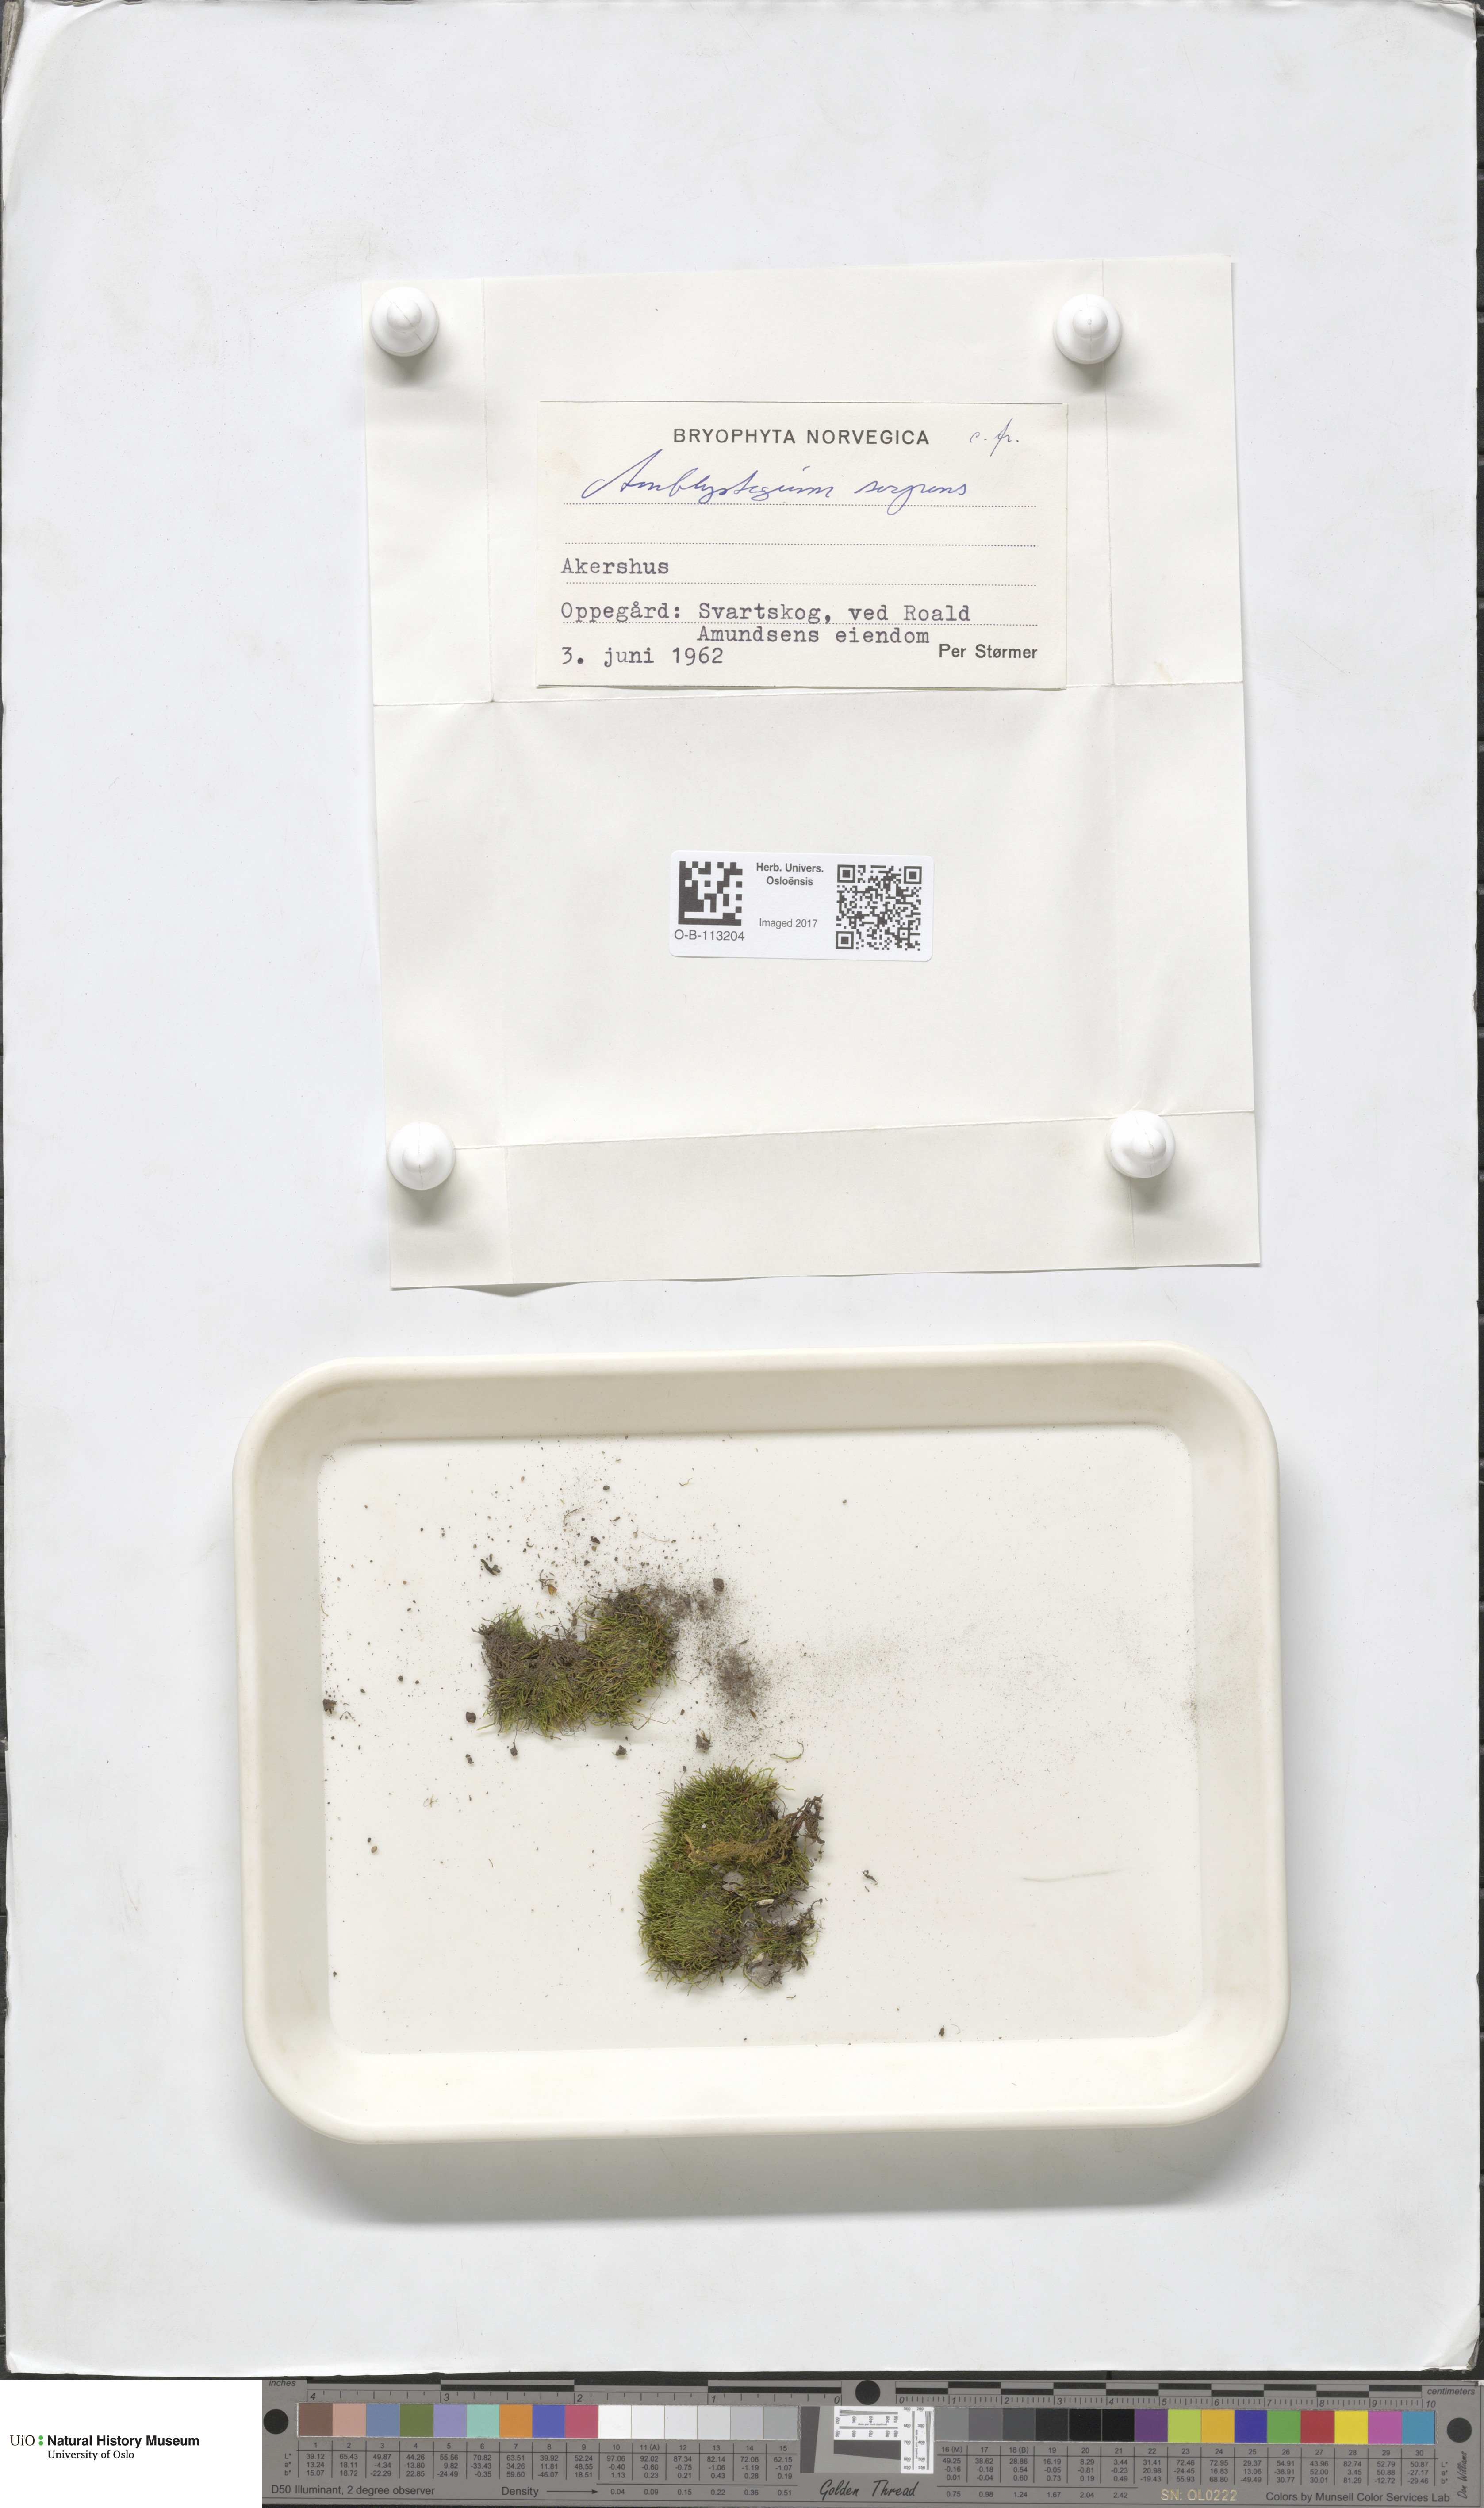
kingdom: Plantae
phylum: Bryophyta
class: Bryopsida
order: Hypnales
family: Amblystegiaceae
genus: Amblystegium
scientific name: Amblystegium serpens
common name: Jurkatzka's feather moss
